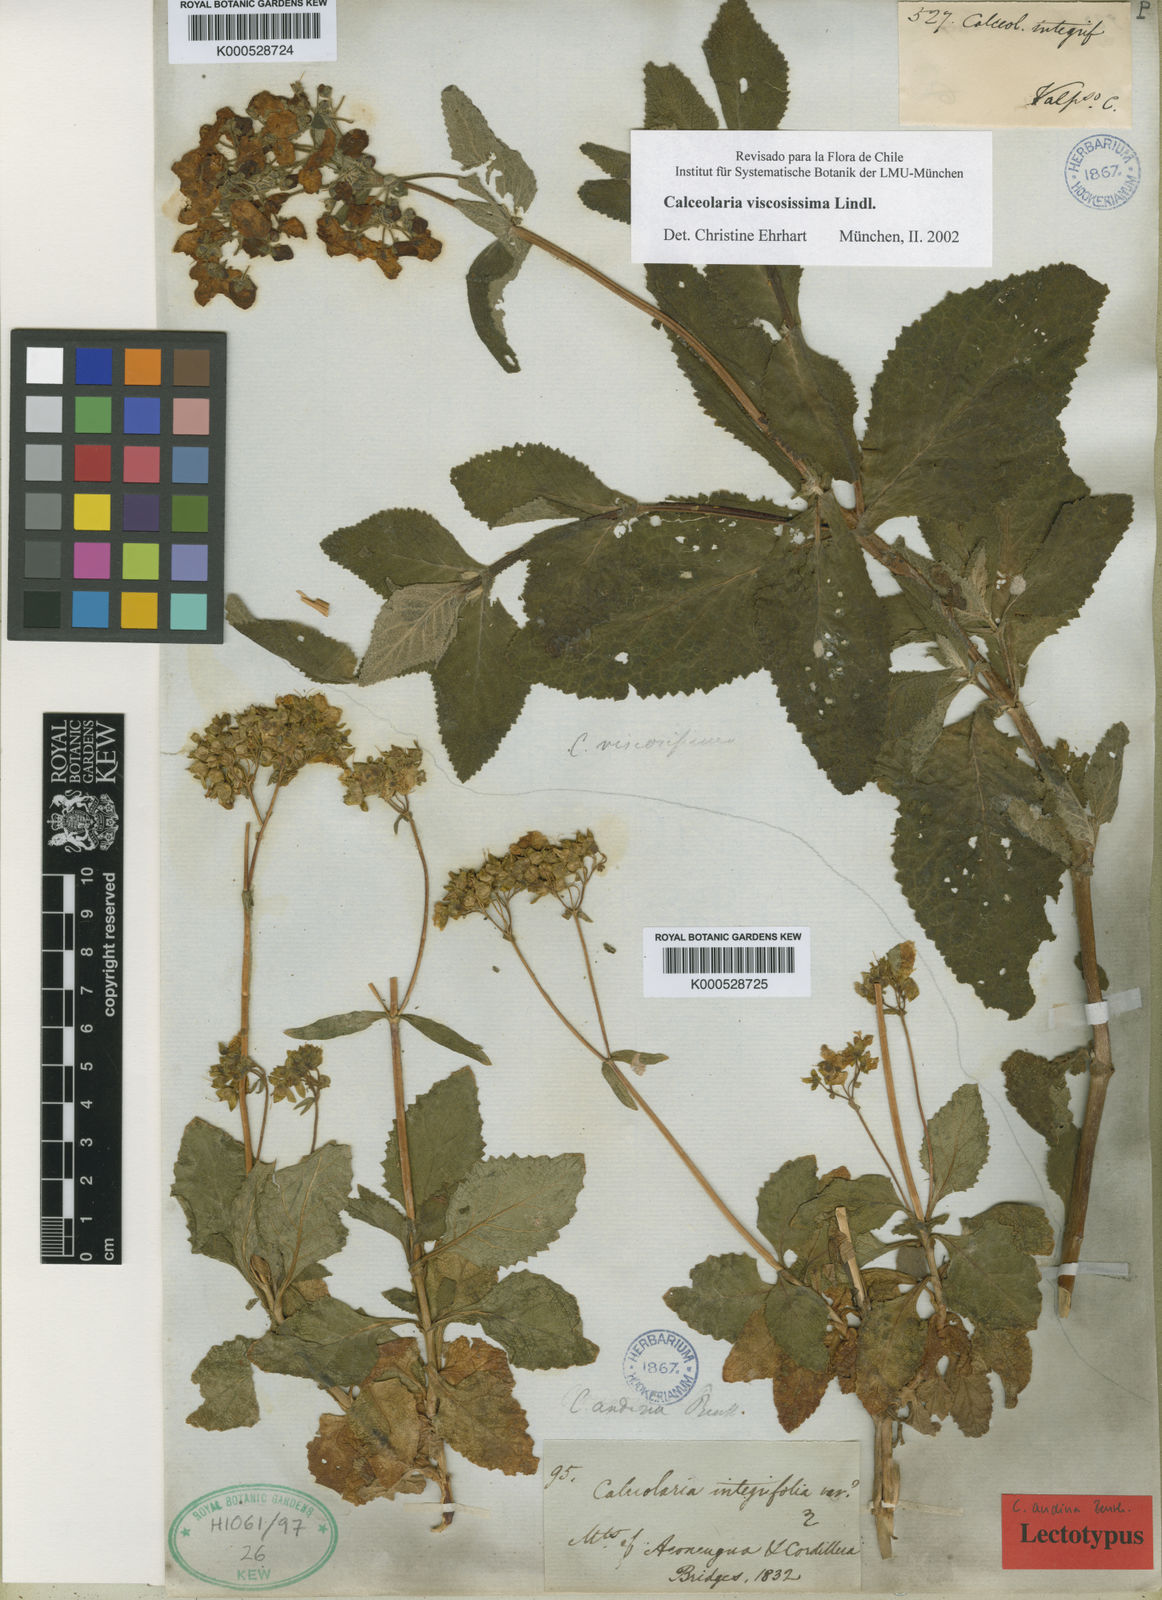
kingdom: Plantae
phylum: Tracheophyta
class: Magnoliopsida
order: Lamiales
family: Calceolariaceae
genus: Calceolaria
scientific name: Calceolaria viscosissima
